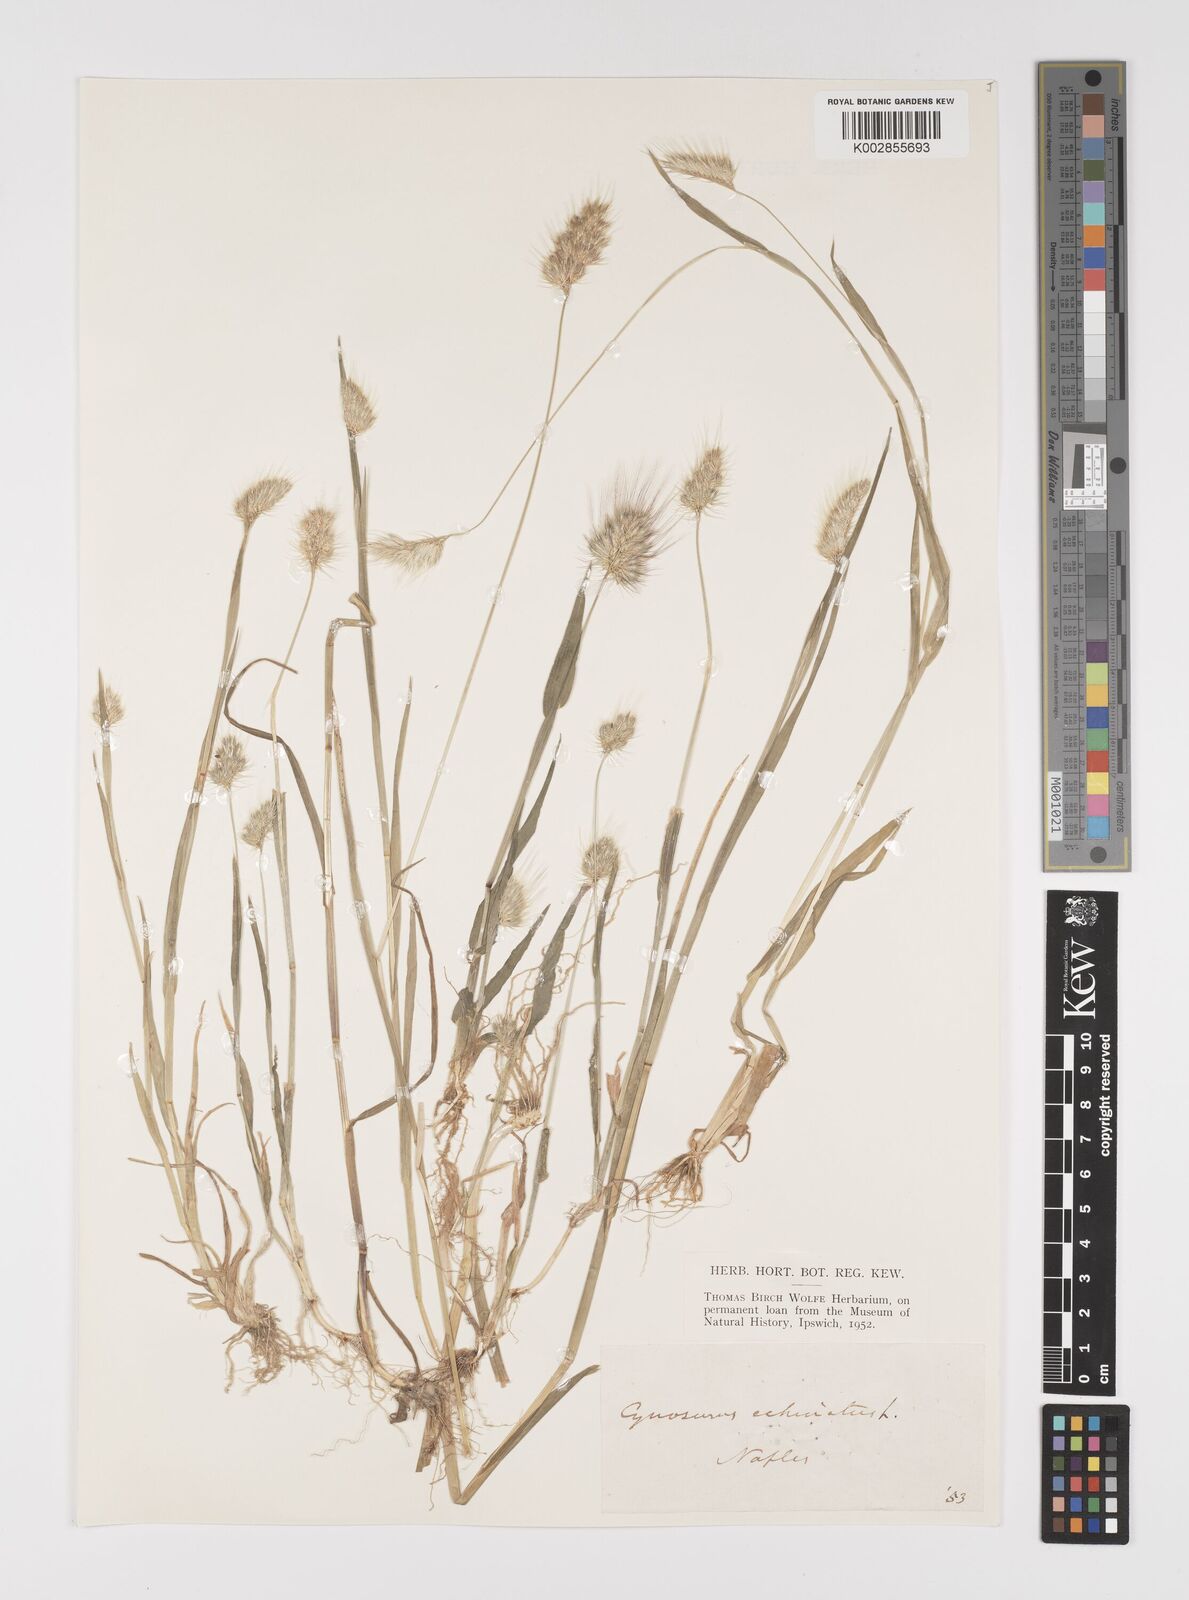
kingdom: Plantae
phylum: Tracheophyta
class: Liliopsida
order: Poales
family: Poaceae
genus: Cynosurus
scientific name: Cynosurus echinatus
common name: Rough dog's-tail
